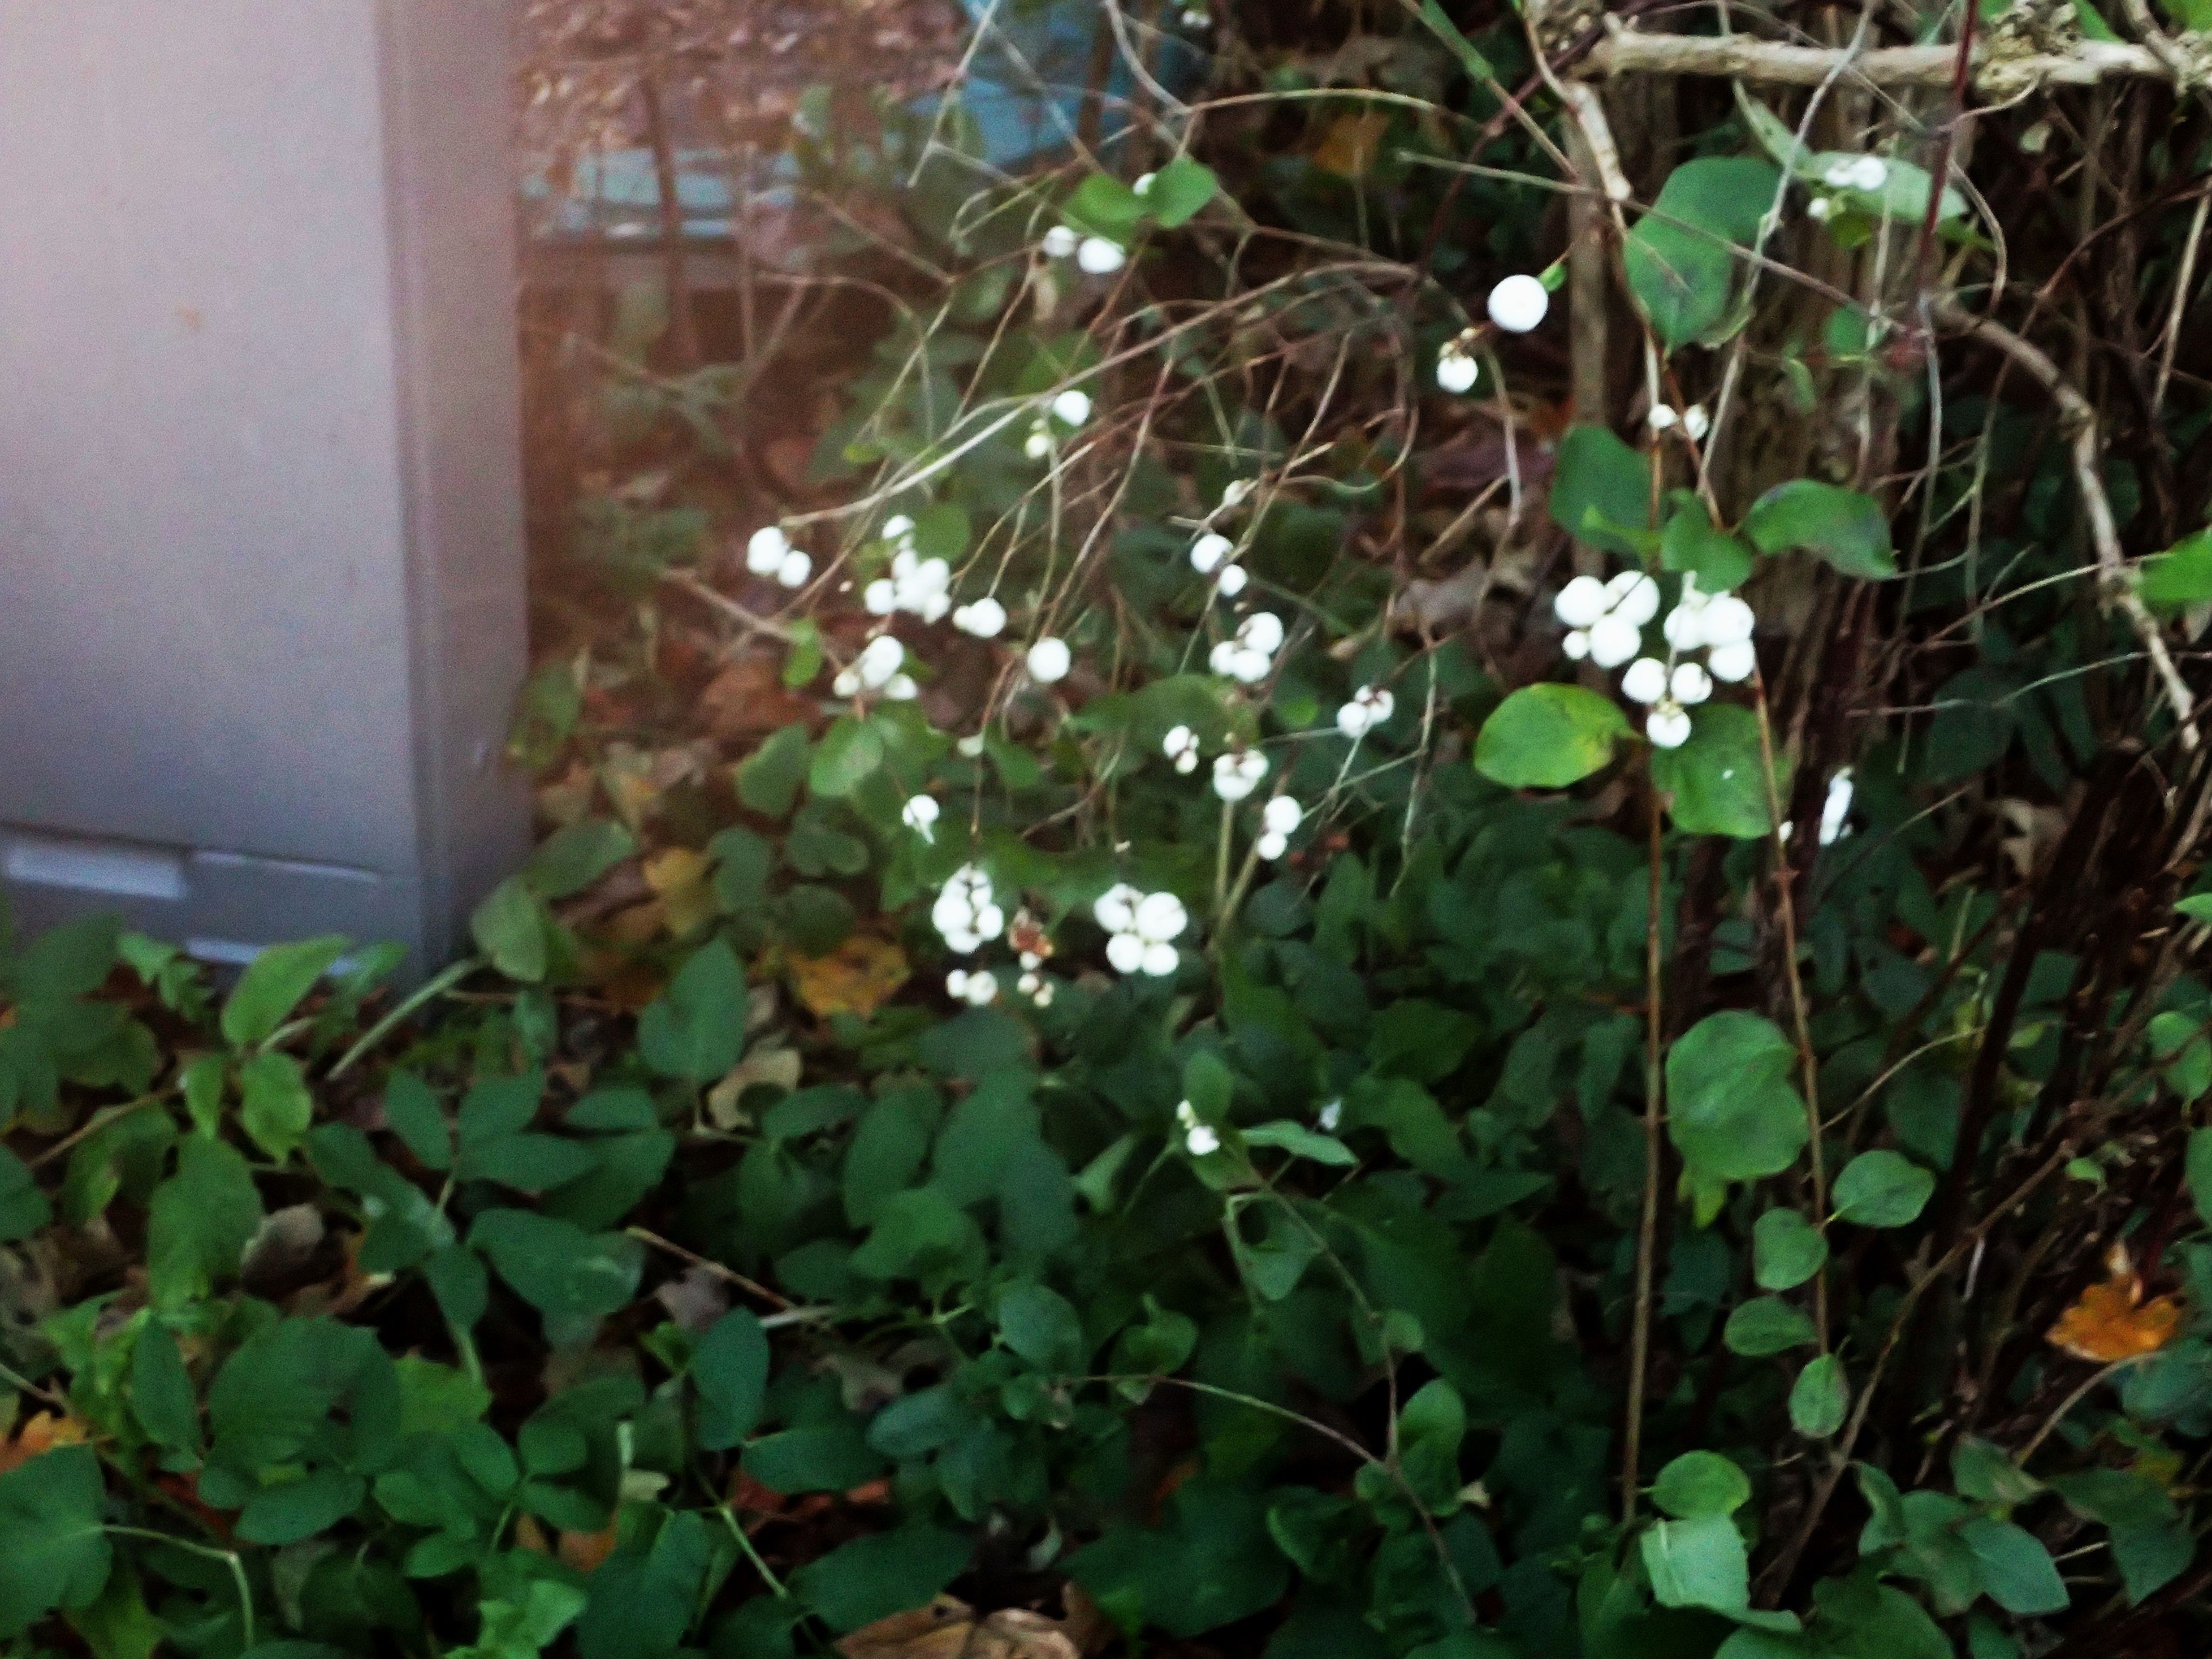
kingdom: Plantae
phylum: Tracheophyta
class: Magnoliopsida
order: Dipsacales
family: Caprifoliaceae
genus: Symphoricarpos
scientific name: Symphoricarpos albus
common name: Almindelig snebær
